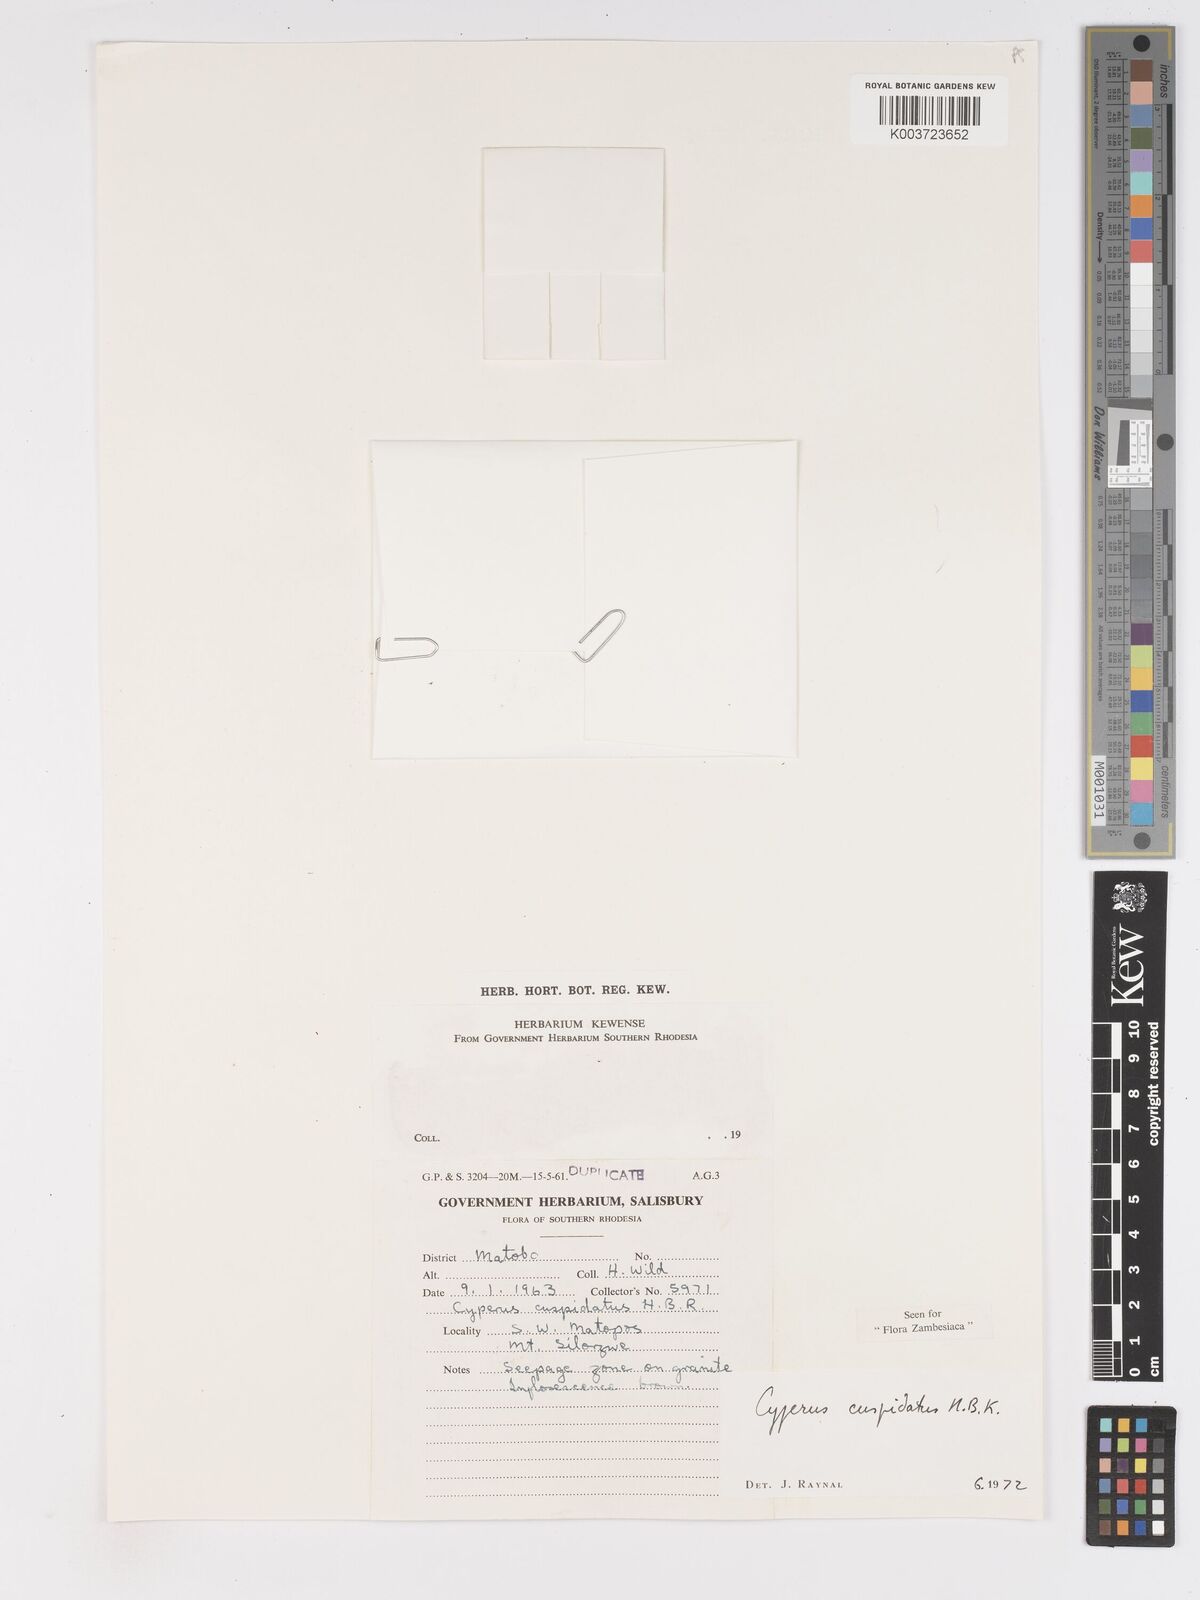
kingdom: Plantae
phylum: Tracheophyta
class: Liliopsida
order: Poales
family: Cyperaceae
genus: Cyperus
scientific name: Cyperus betafensis
